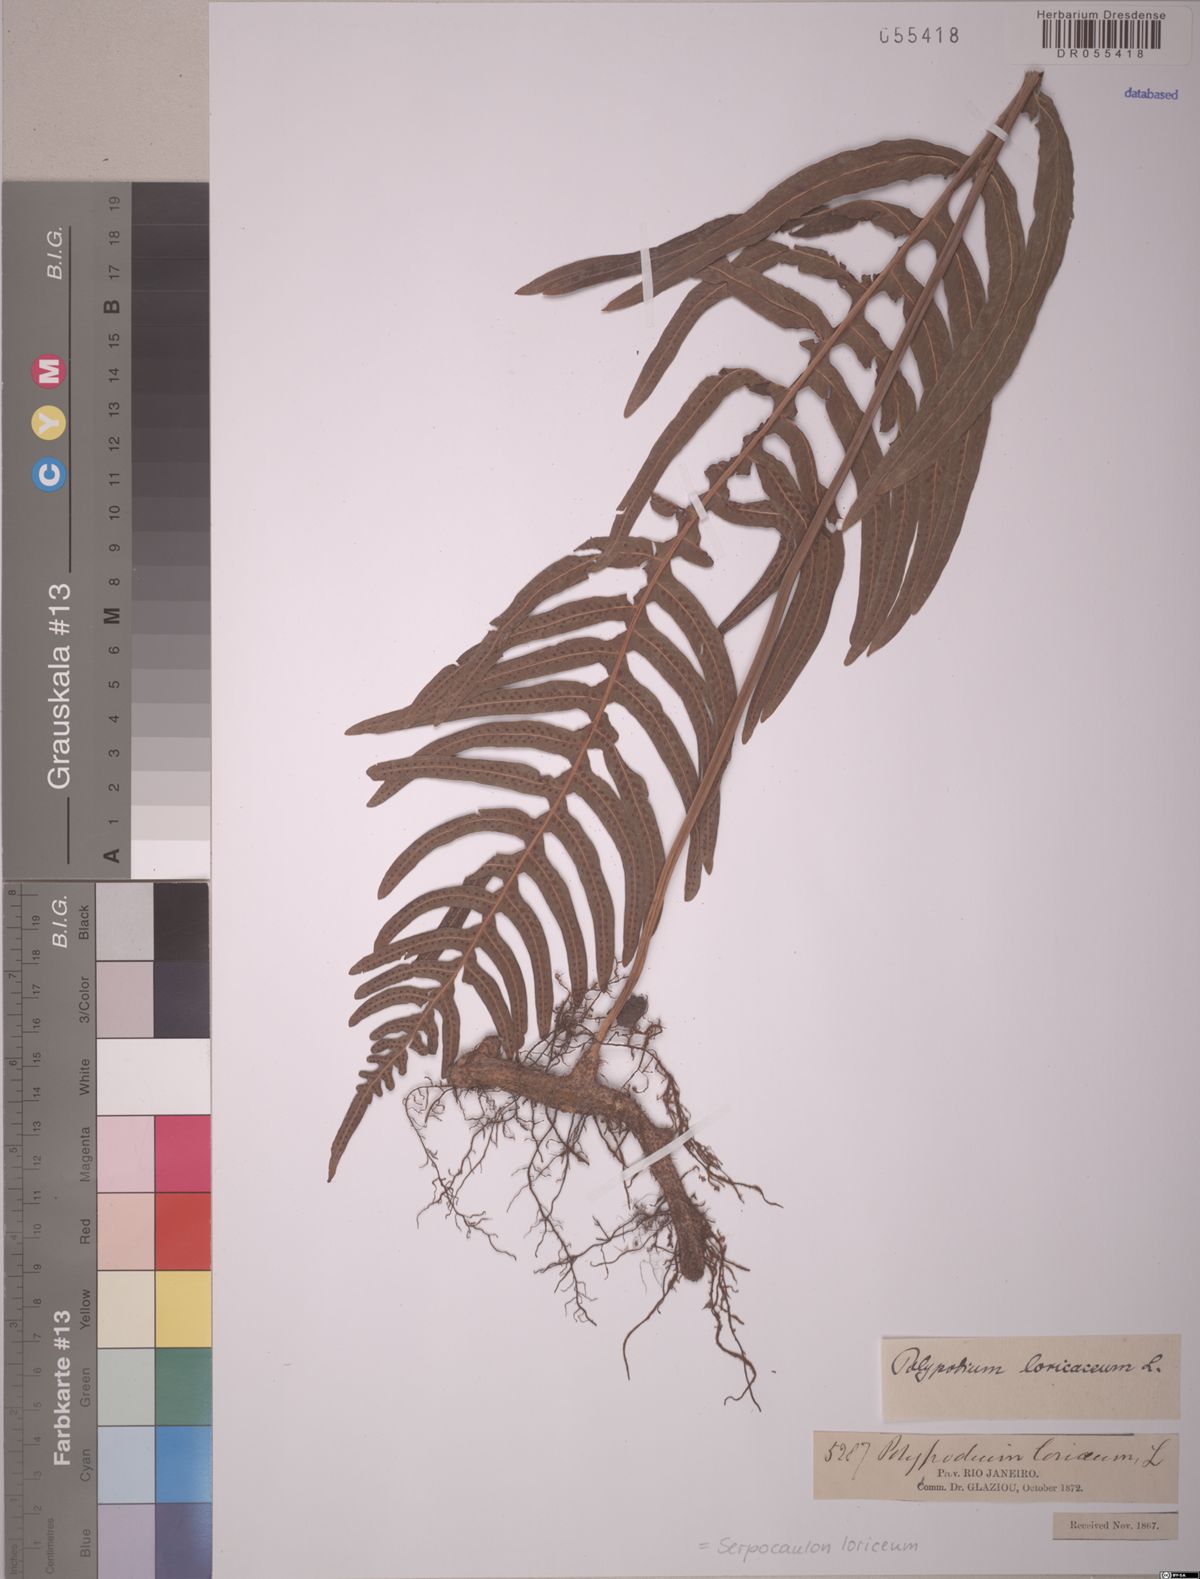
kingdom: Plantae
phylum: Tracheophyta
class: Polypodiopsida
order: Polypodiales
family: Polypodiaceae
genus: Serpocaulon
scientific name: Serpocaulon loriceum
